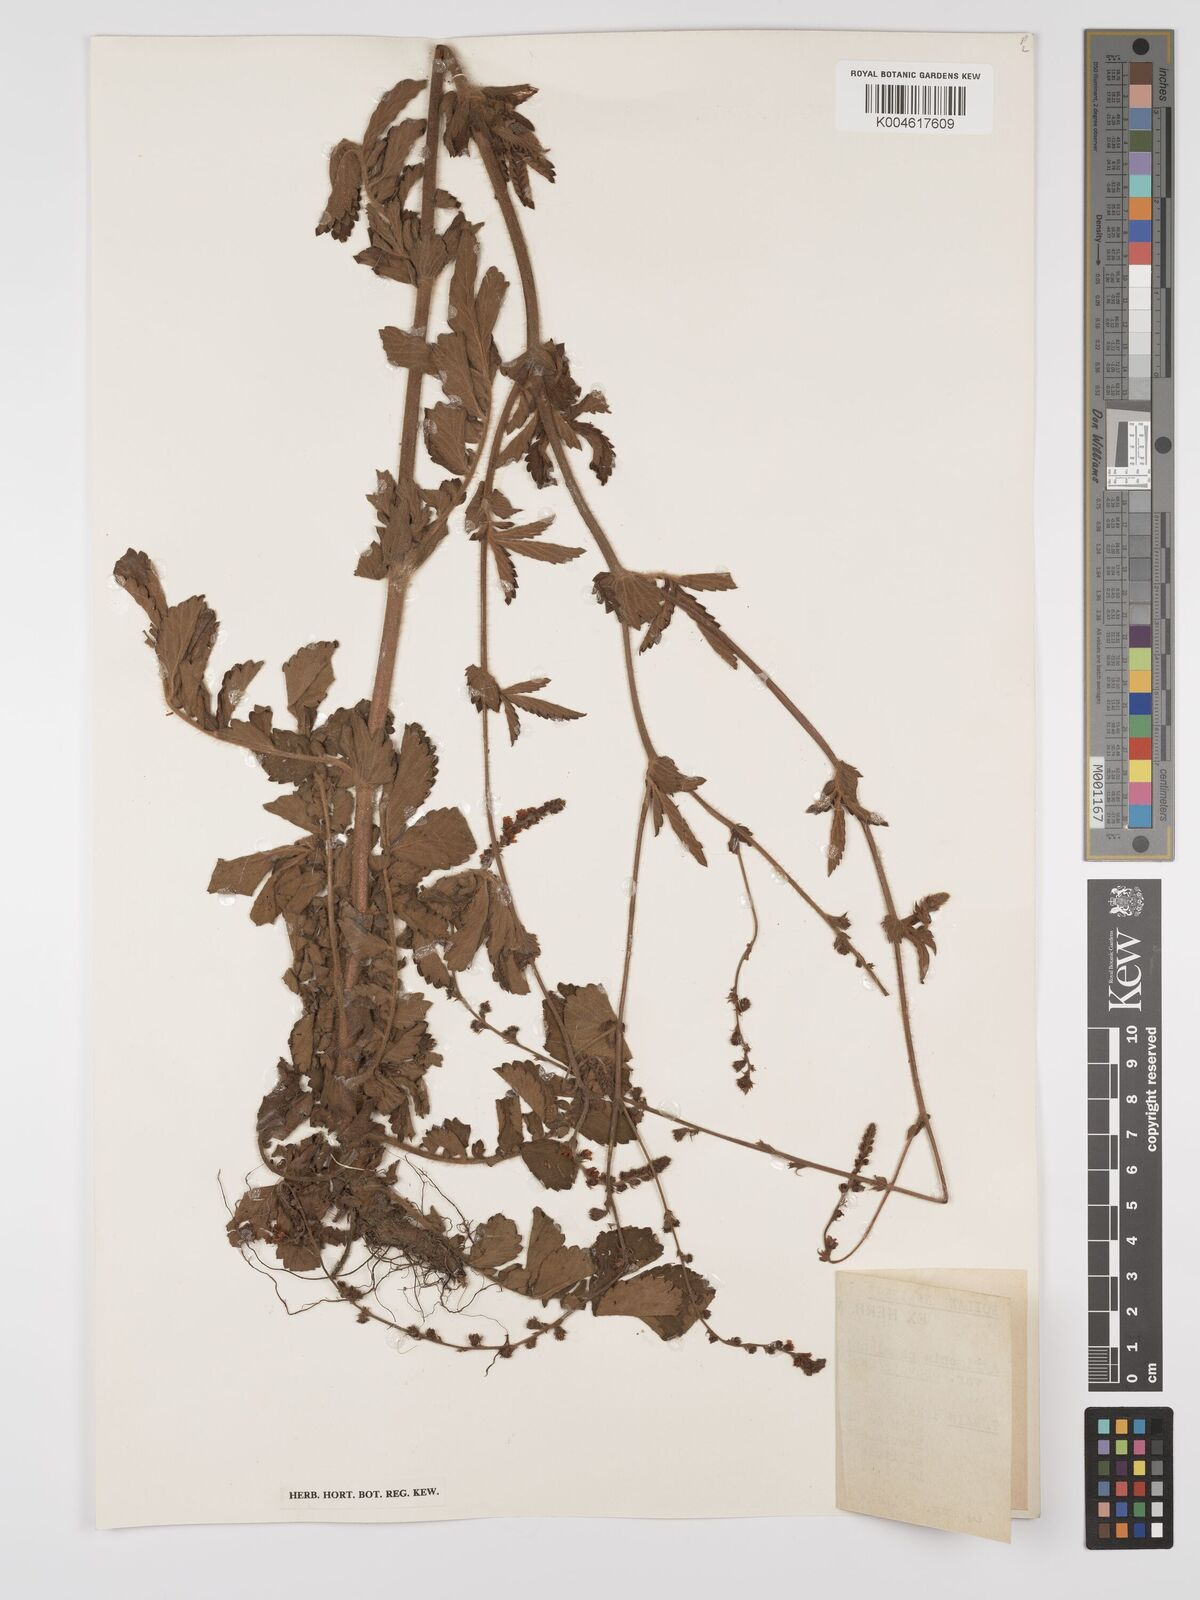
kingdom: Plantae
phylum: Tracheophyta
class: Magnoliopsida
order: Rosales
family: Rosaceae
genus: Agrimonia
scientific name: Agrimonia pilosa
